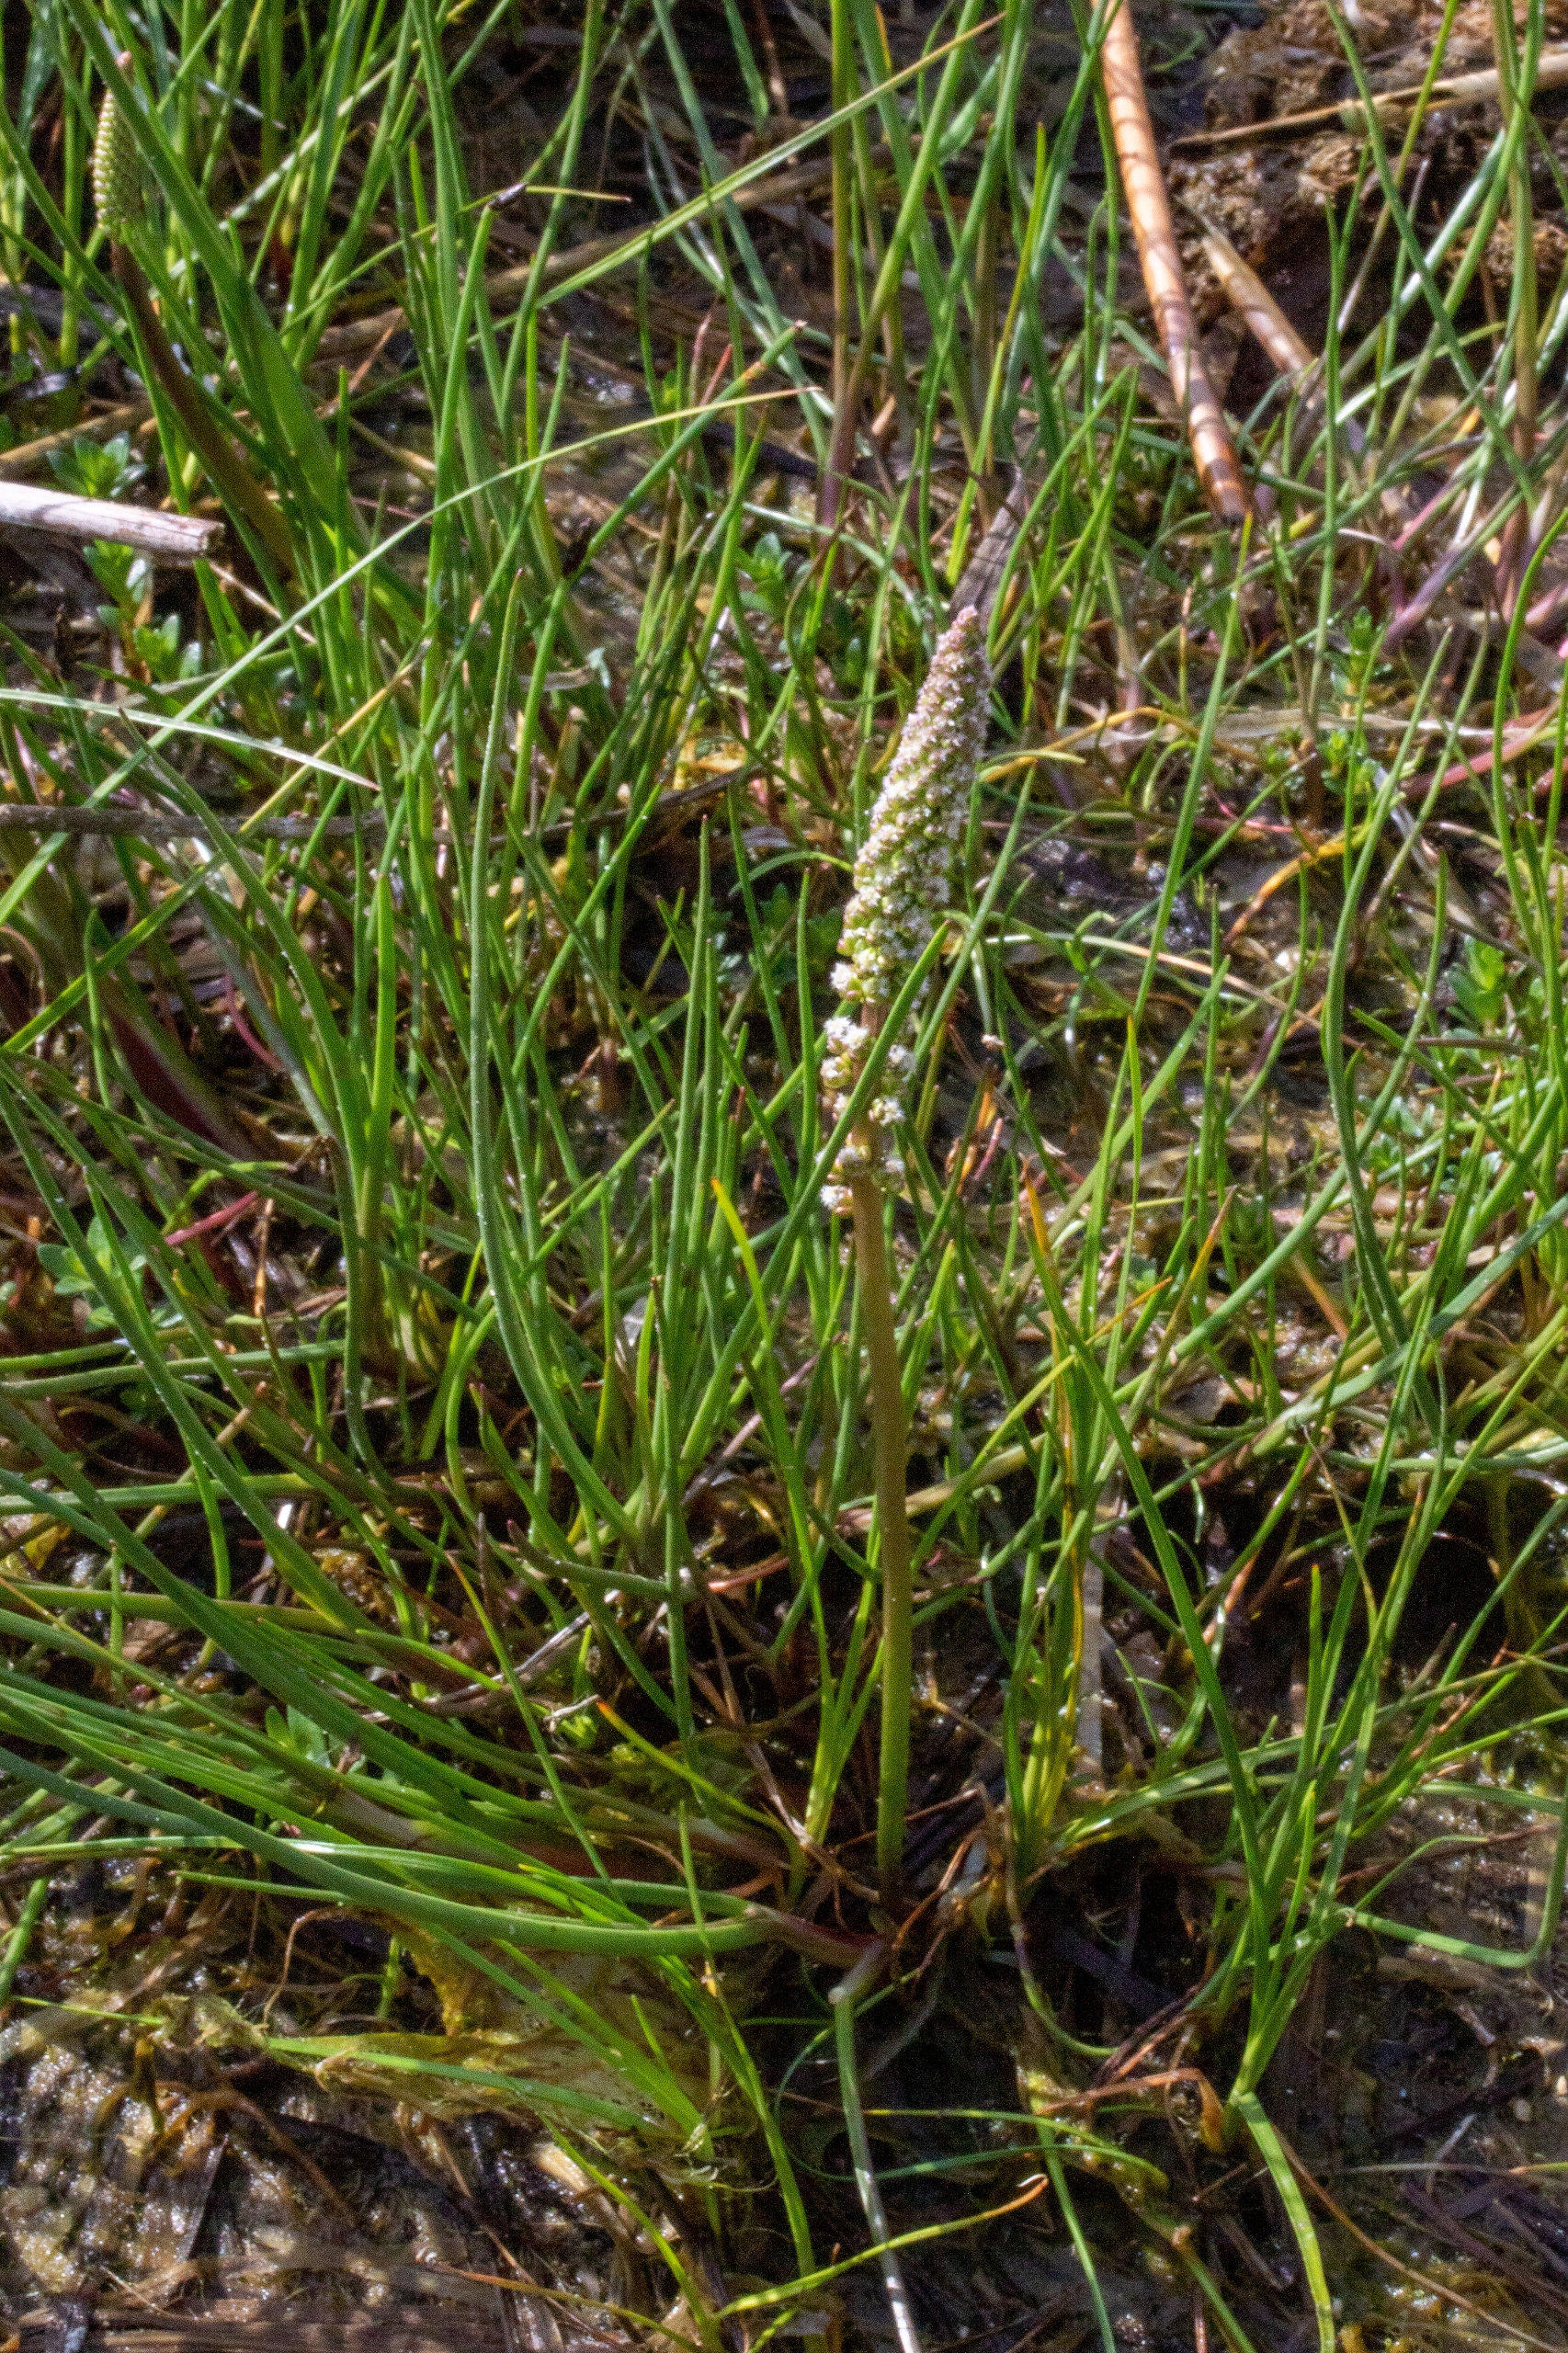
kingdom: Plantae
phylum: Tracheophyta
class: Liliopsida
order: Alismatales
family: Juncaginaceae
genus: Triglochin
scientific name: Triglochin maritima
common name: Strand-trehage
